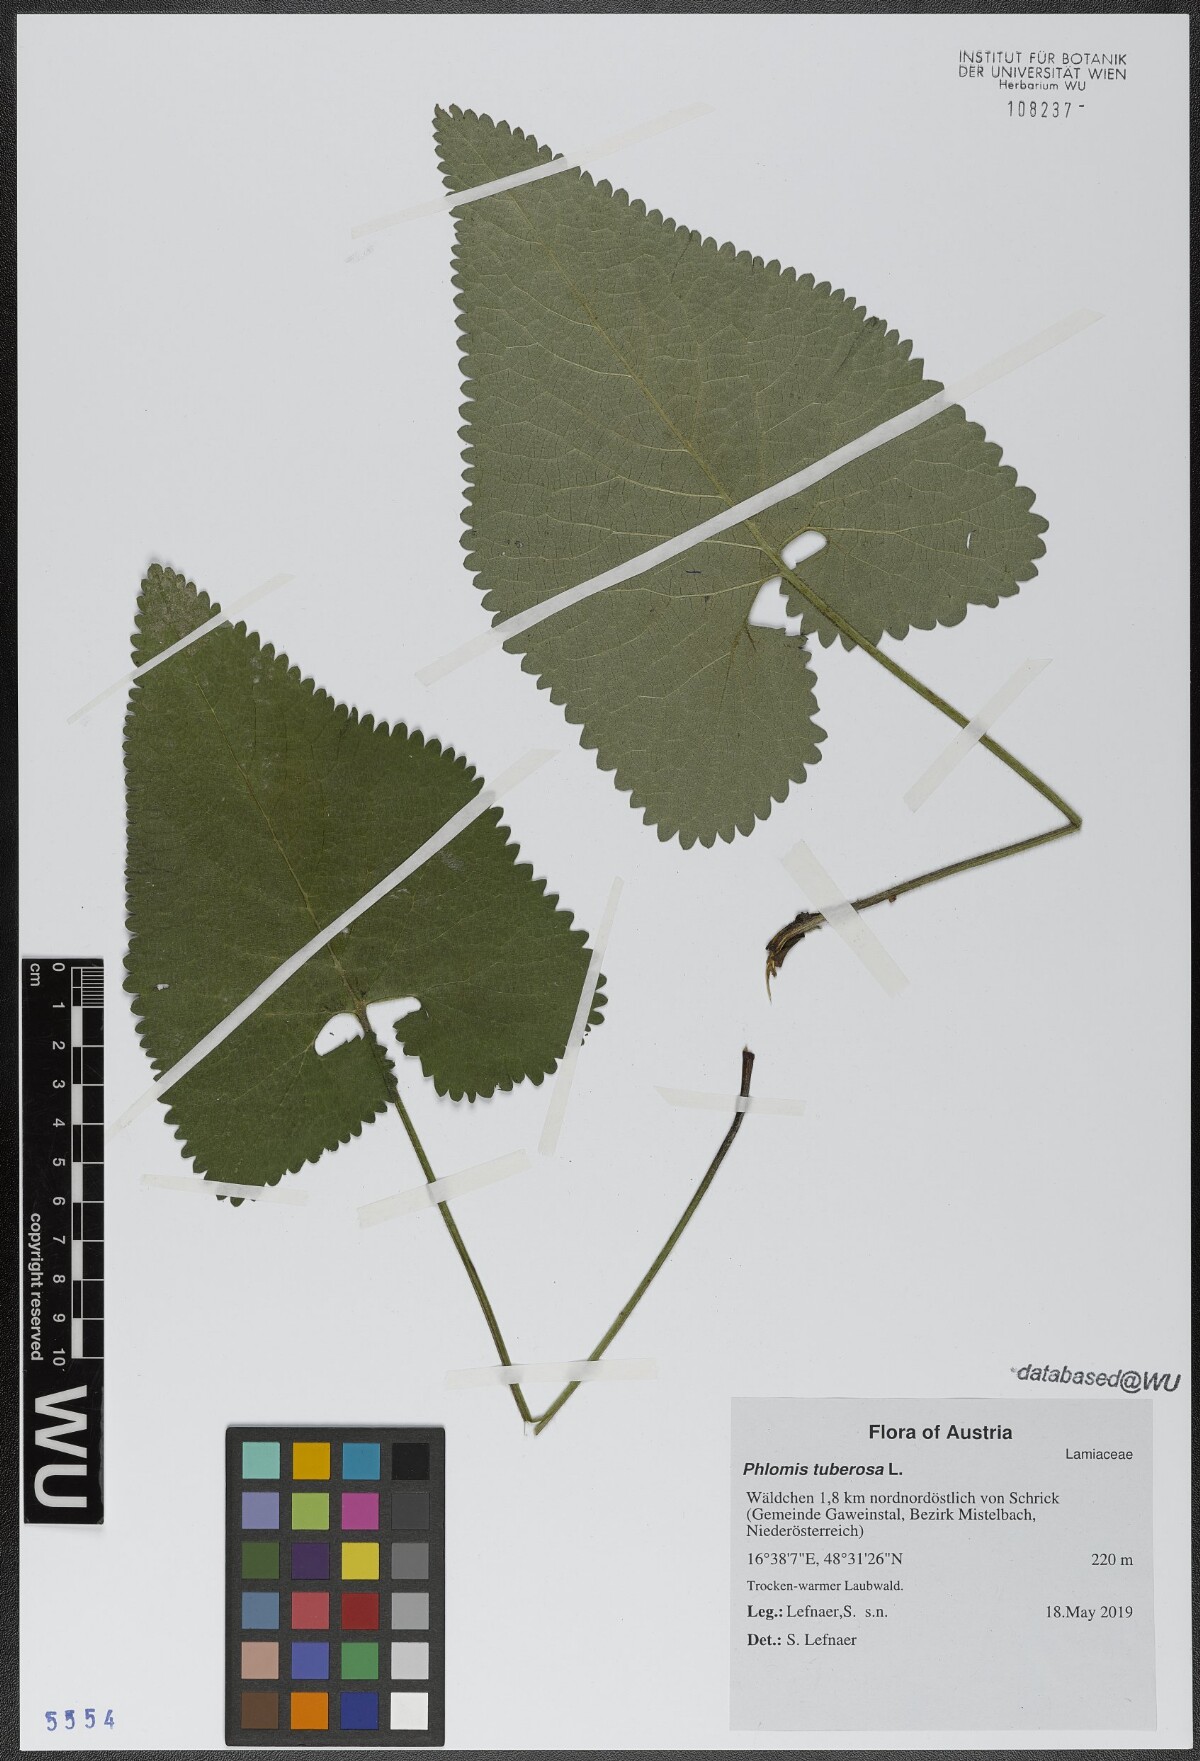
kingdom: Plantae
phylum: Tracheophyta
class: Magnoliopsida
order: Lamiales
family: Lamiaceae
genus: Phlomoides
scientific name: Phlomoides tuberosa
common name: Tuberous jerusalem sage
